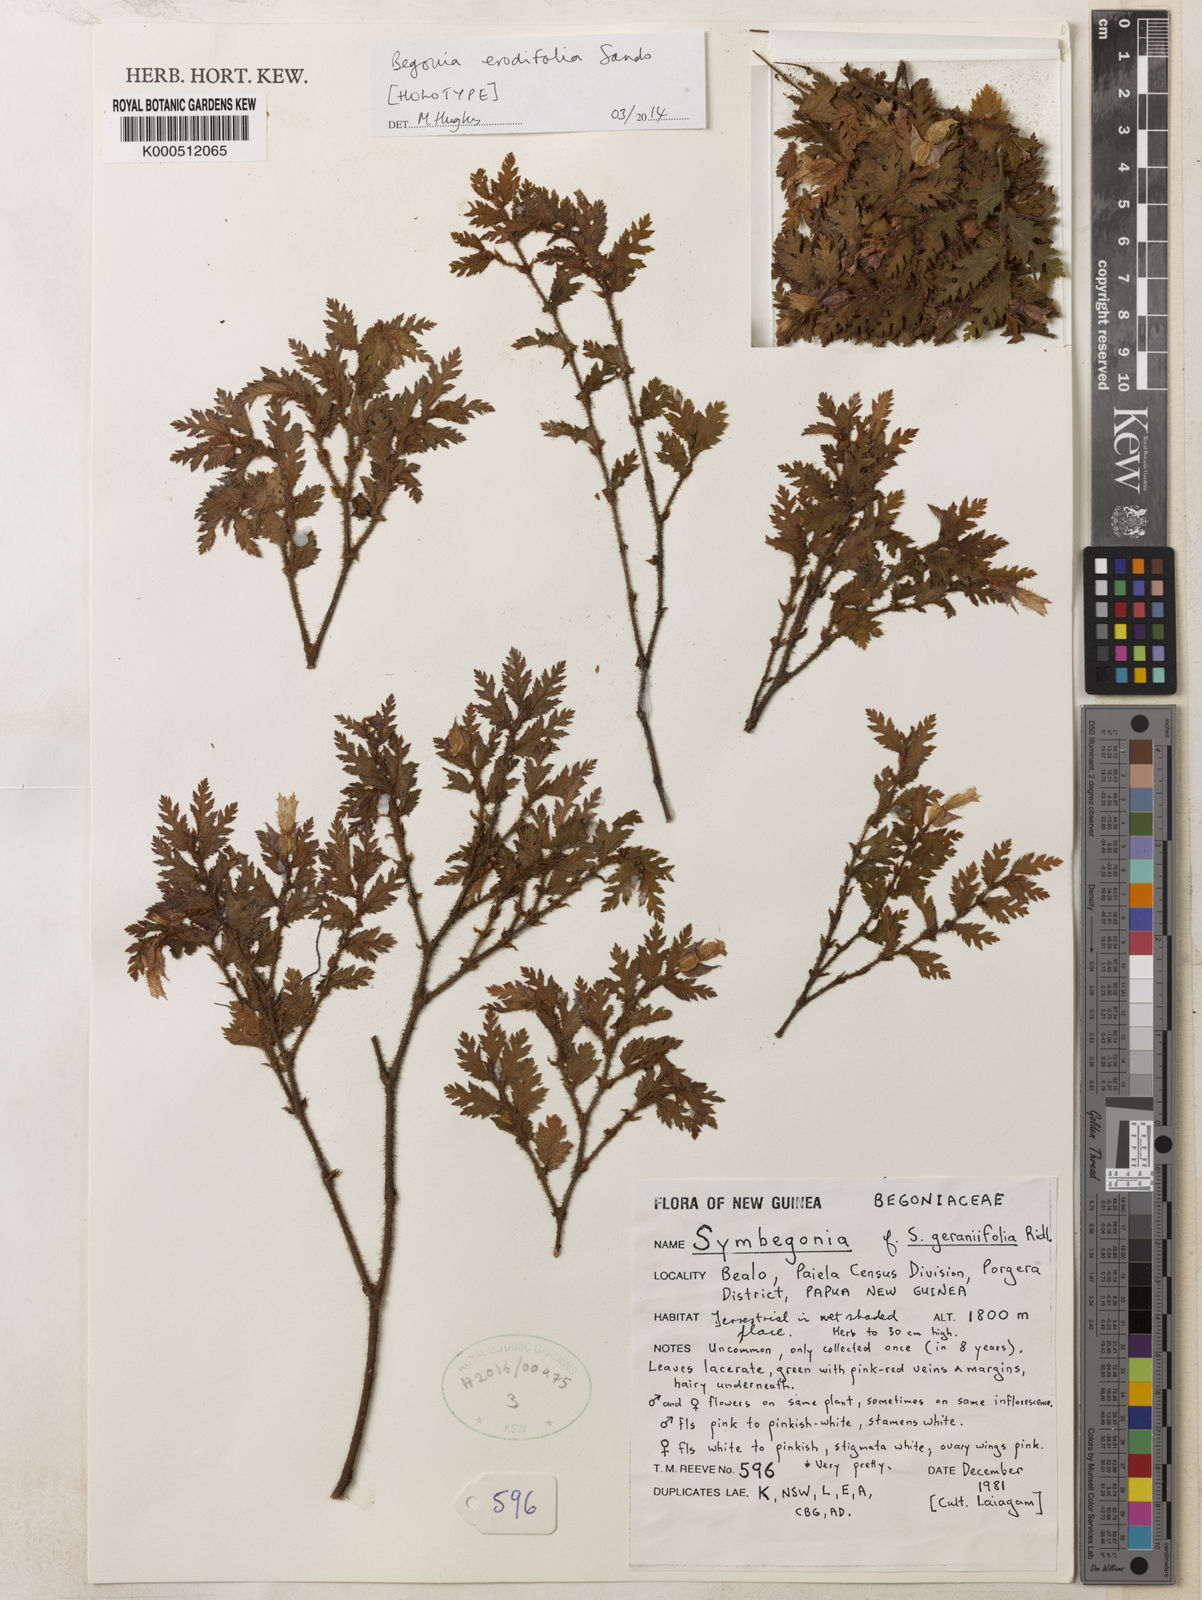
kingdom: Plantae
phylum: Tracheophyta
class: Magnoliopsida
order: Cucurbitales
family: Begoniaceae
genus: Begonia
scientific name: Begonia
